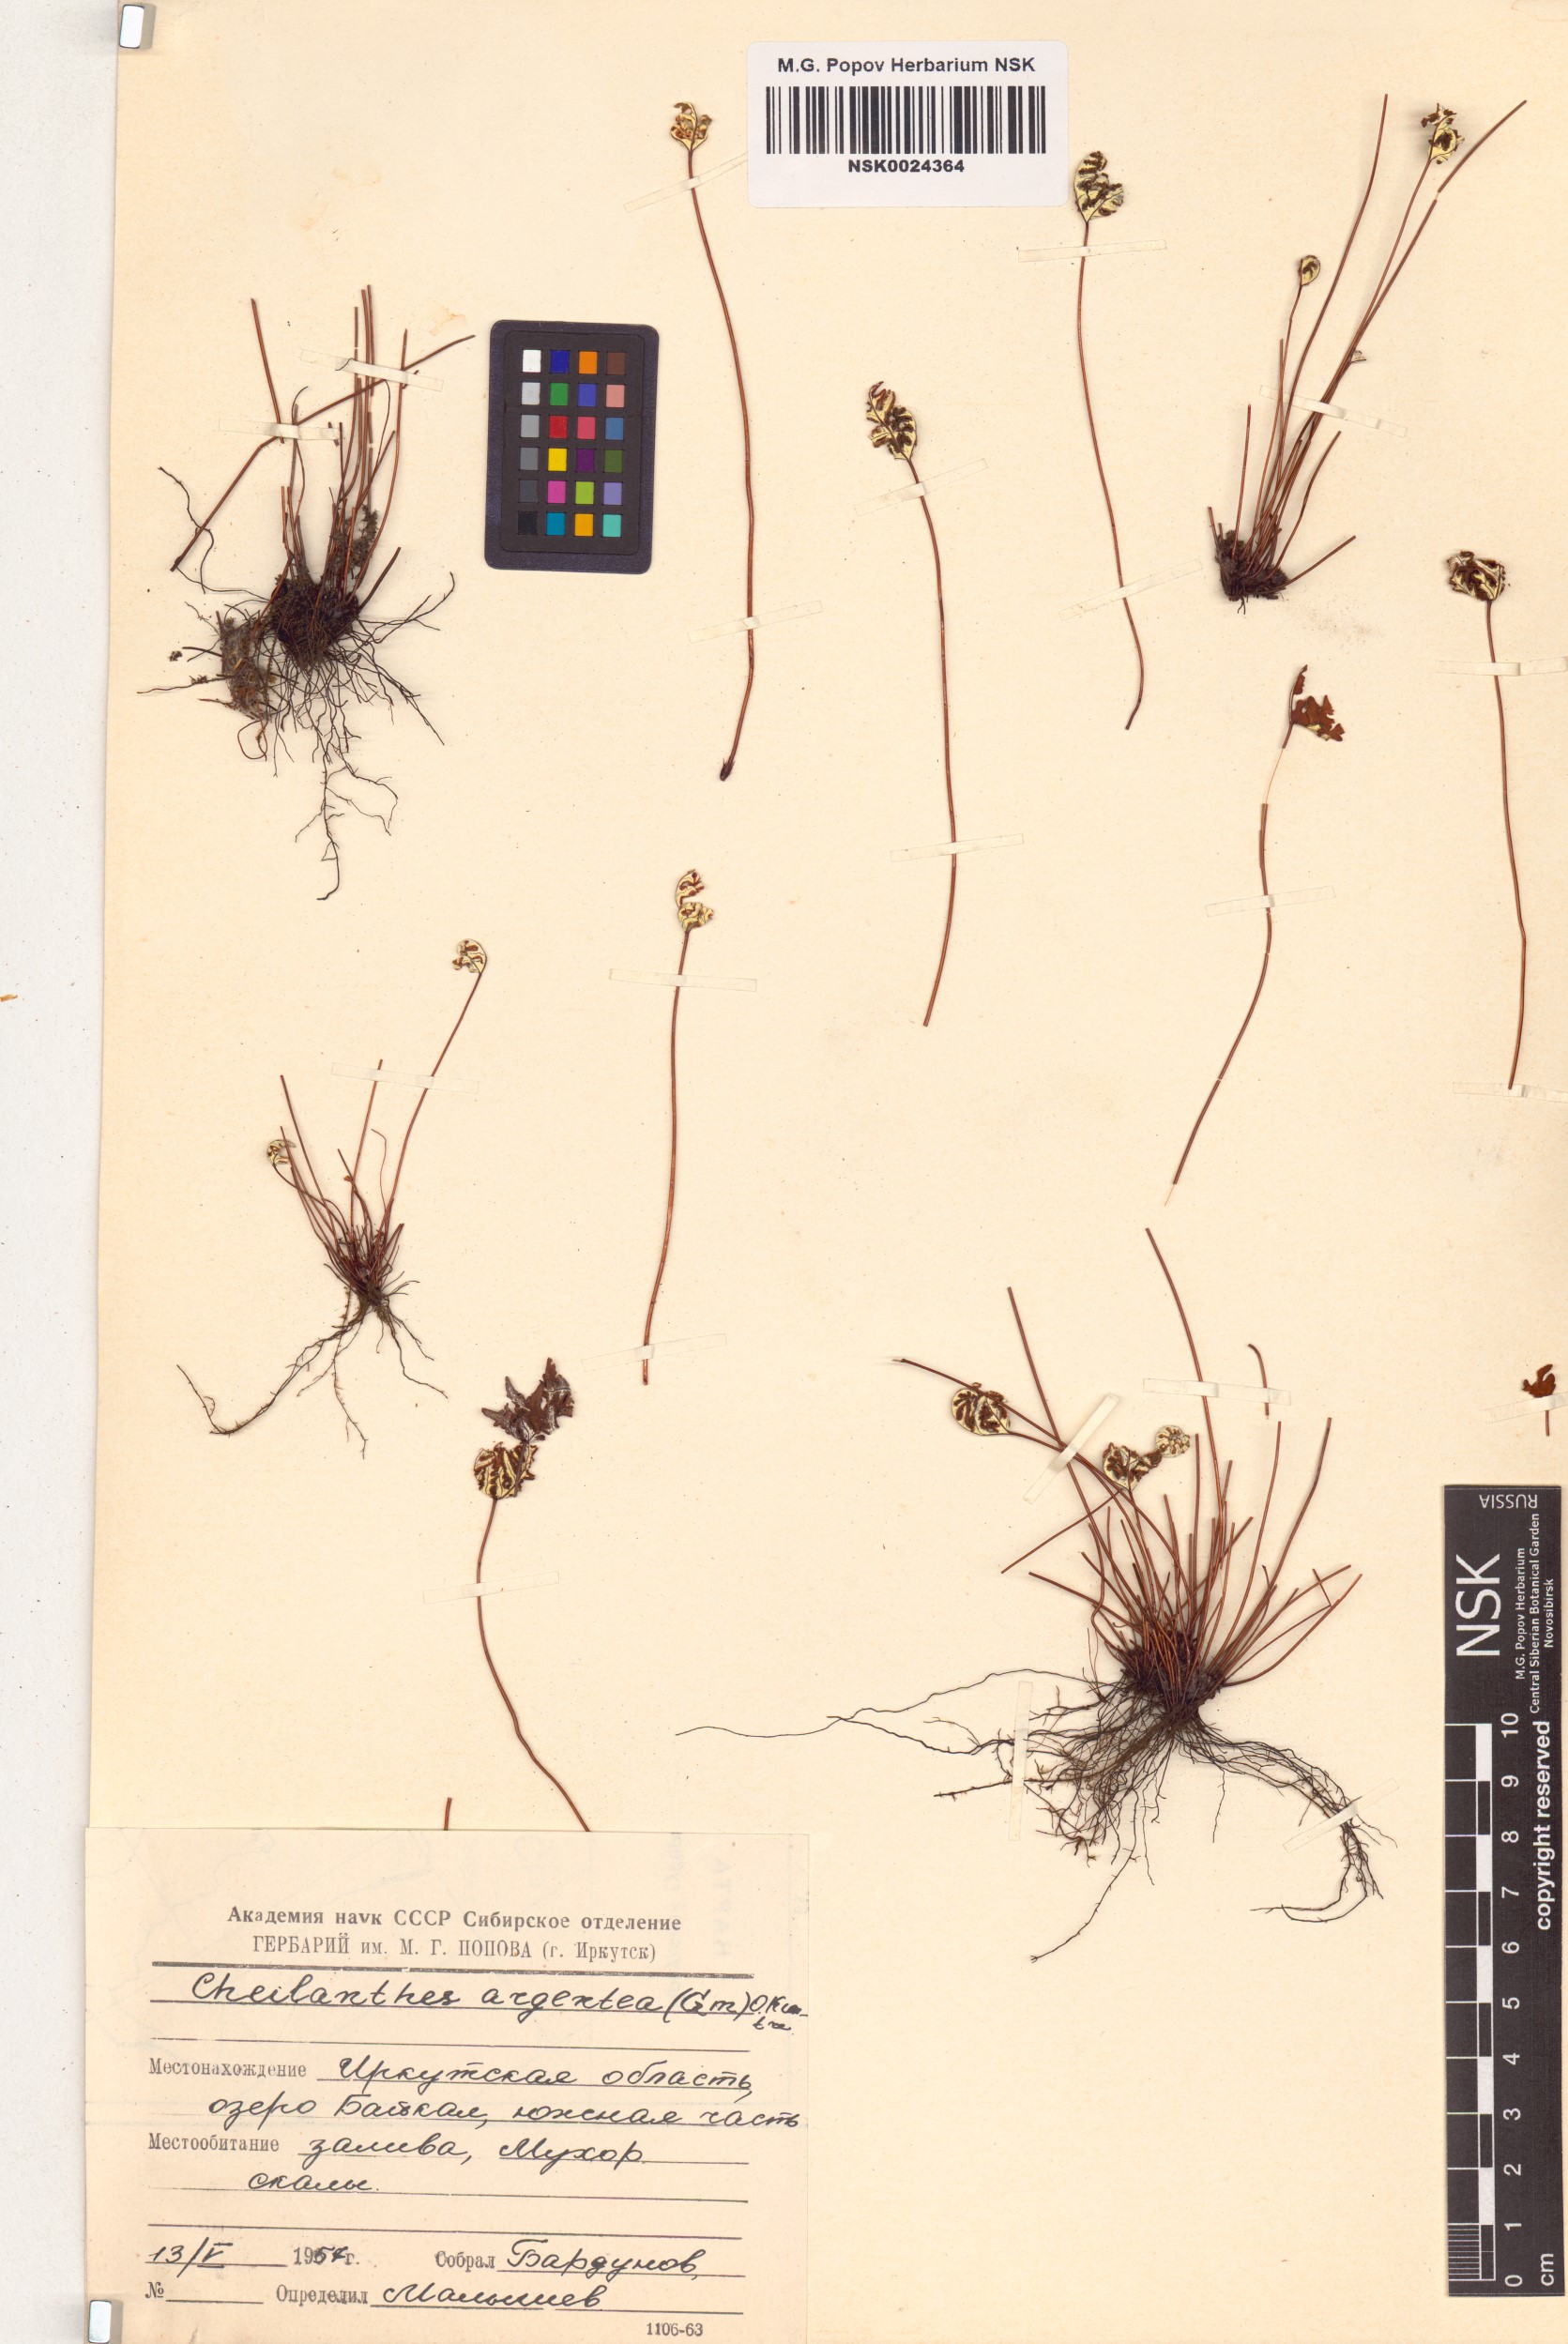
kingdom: Plantae
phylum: Tracheophyta
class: Polypodiopsida
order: Polypodiales
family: Pteridaceae
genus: Aleuritopteris
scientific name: Aleuritopteris argentea
